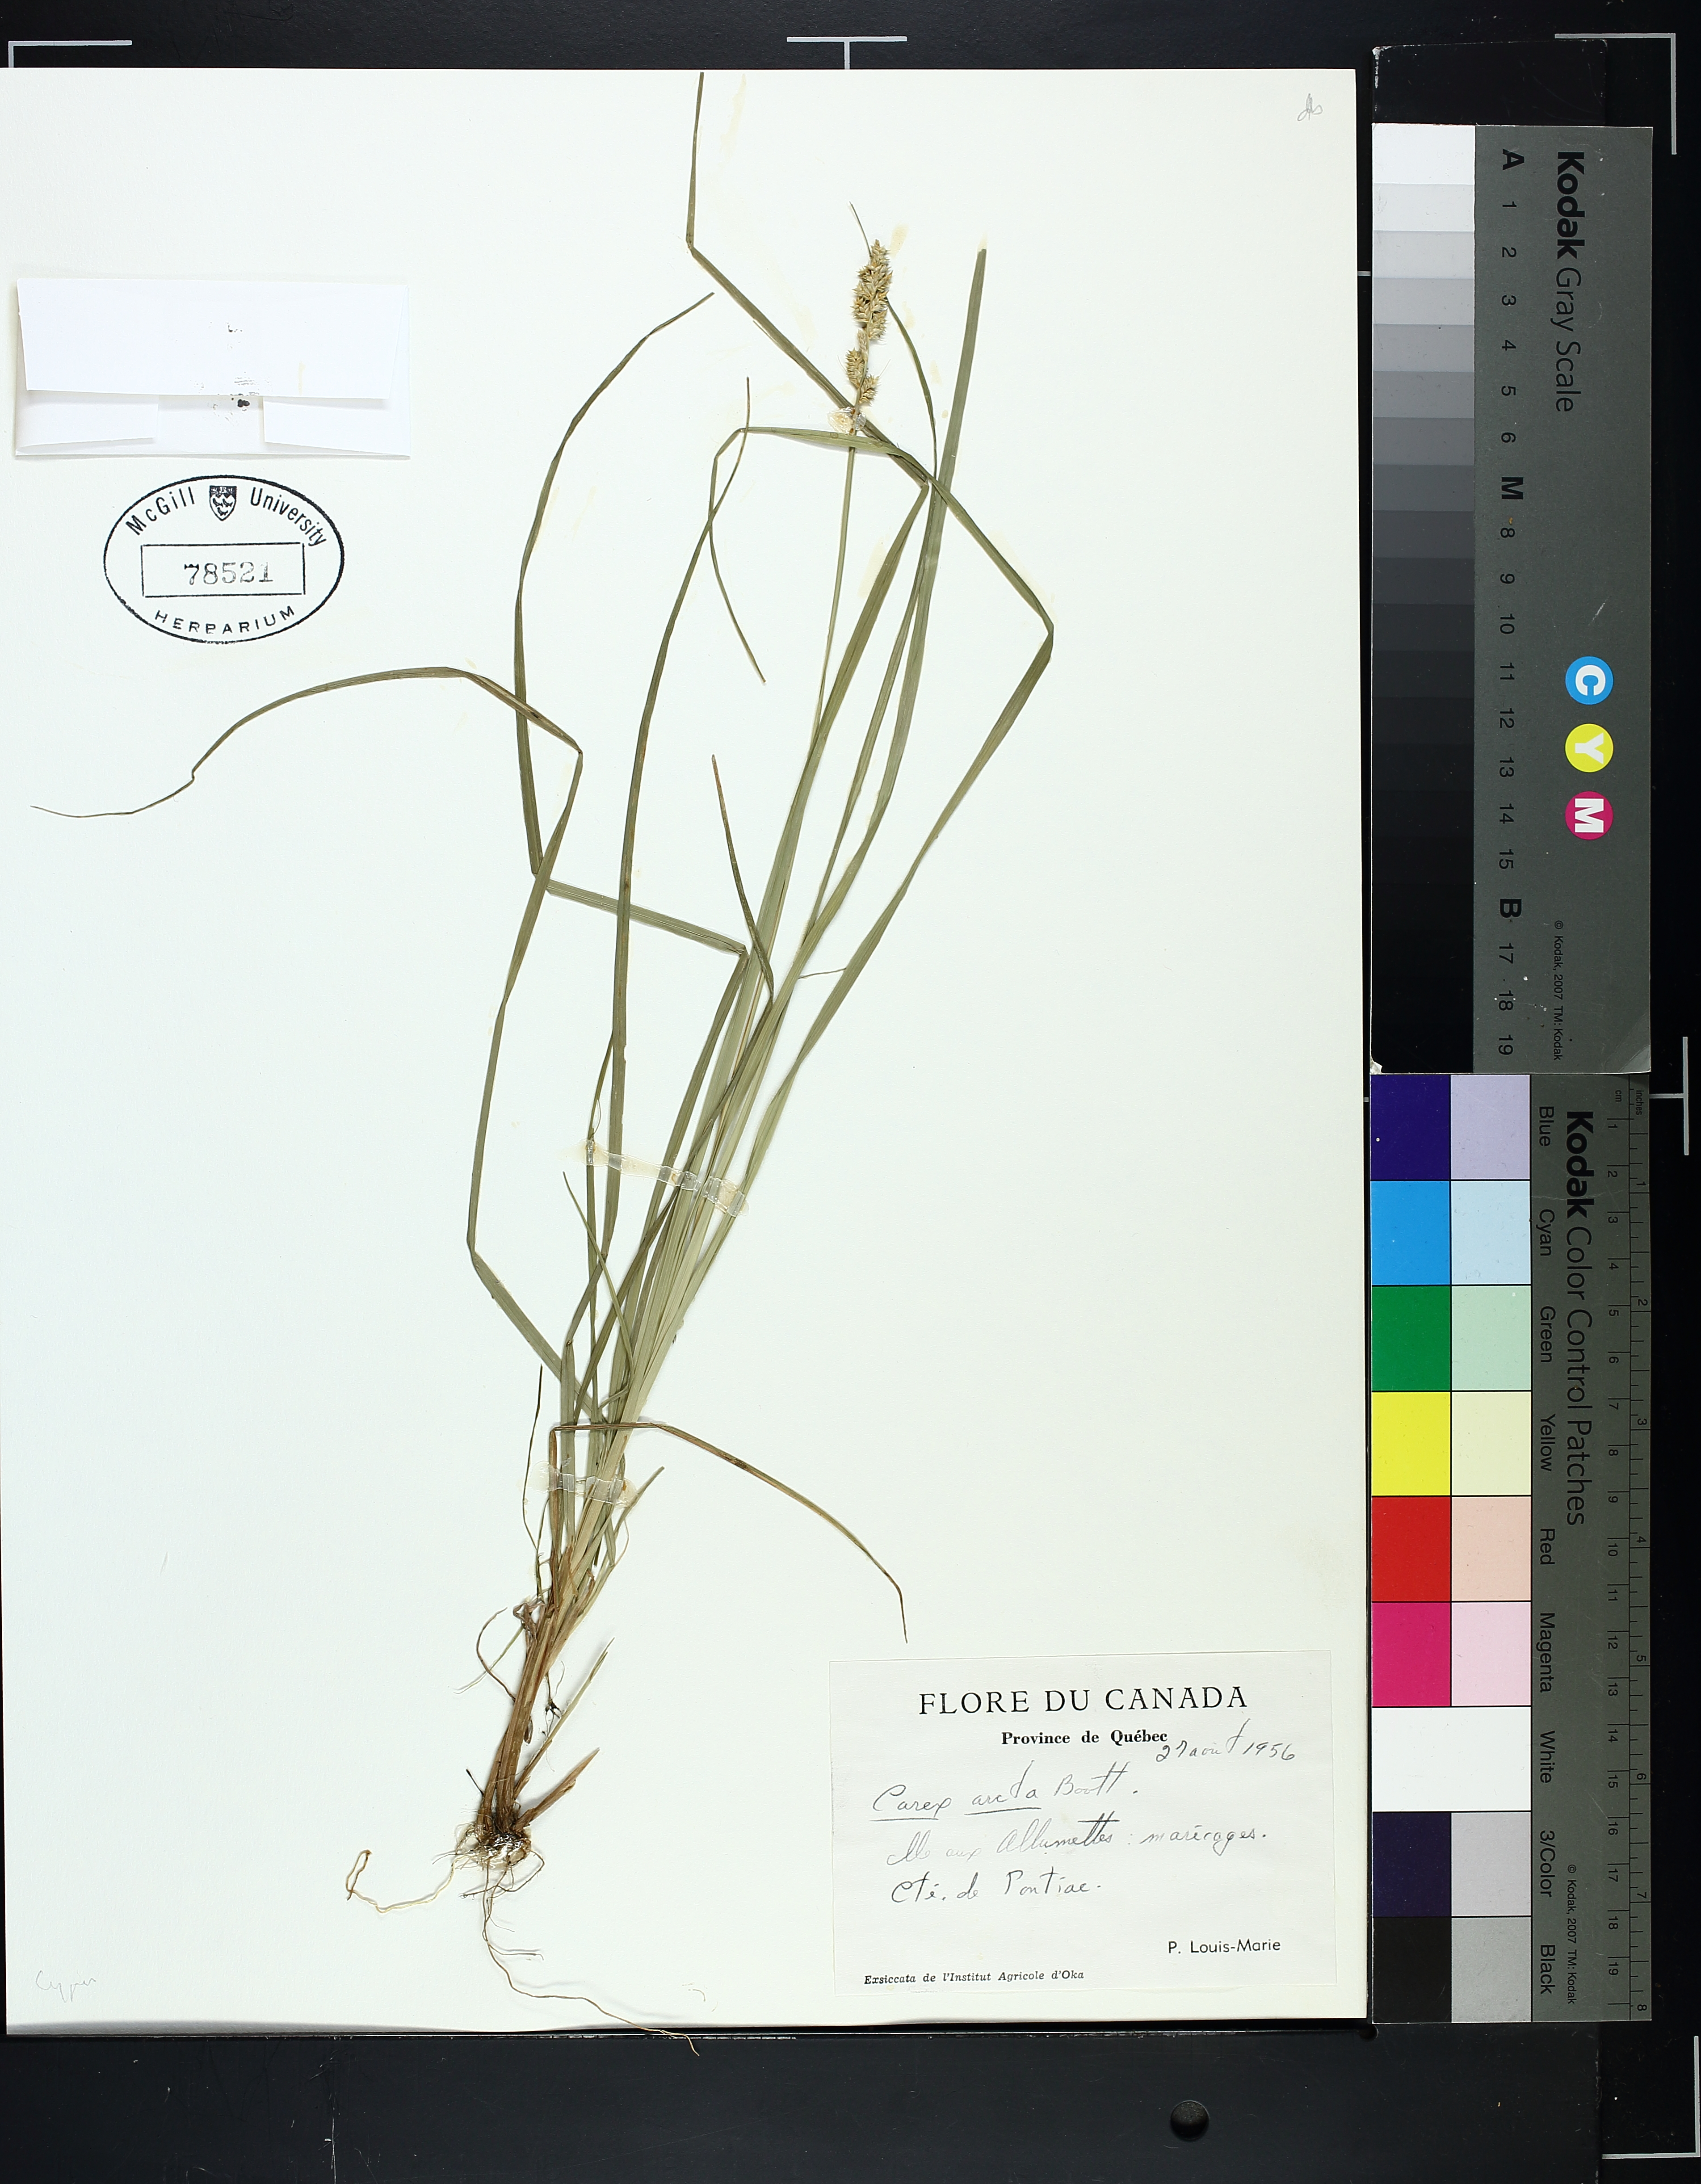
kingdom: Plantae
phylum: Tracheophyta
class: Liliopsida
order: Poales
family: Cyperaceae
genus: Carex
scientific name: Carex arcta
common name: Bear sedge
